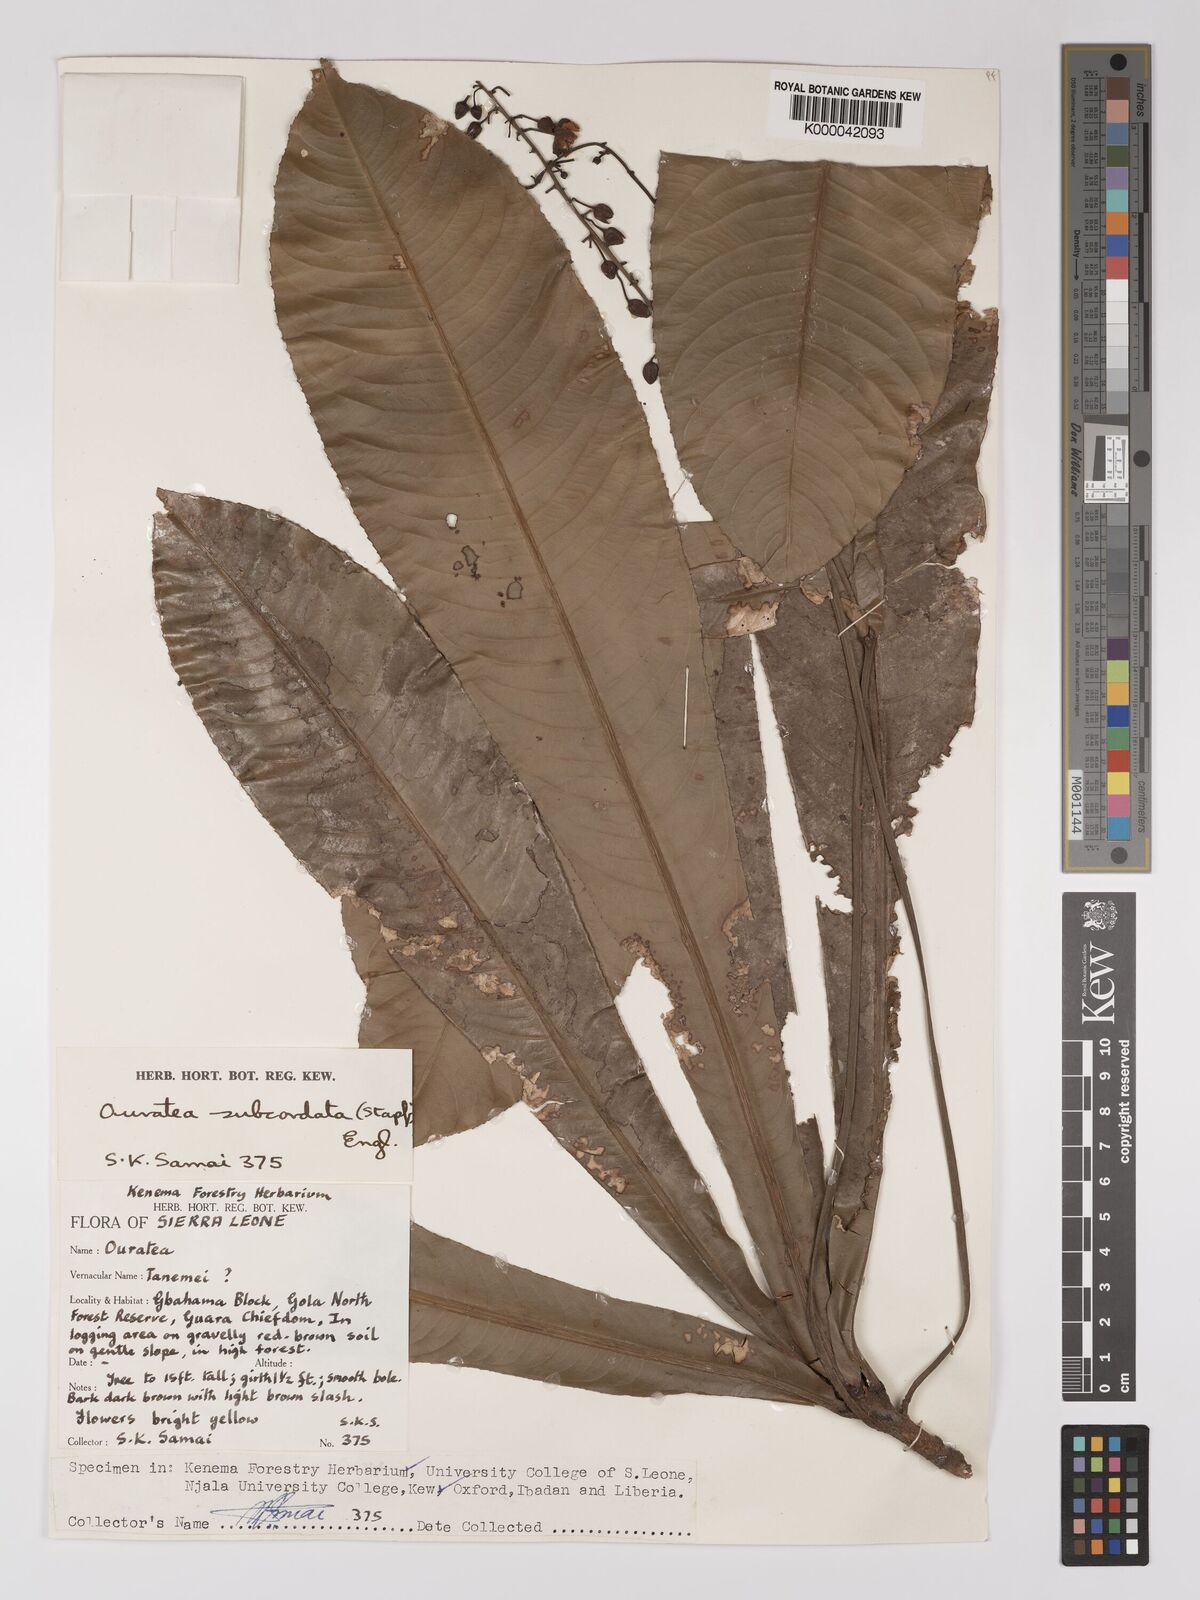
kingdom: Plantae
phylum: Tracheophyta
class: Magnoliopsida
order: Malpighiales
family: Ochnaceae
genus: Campylospermum
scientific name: Campylospermum subcordatum
